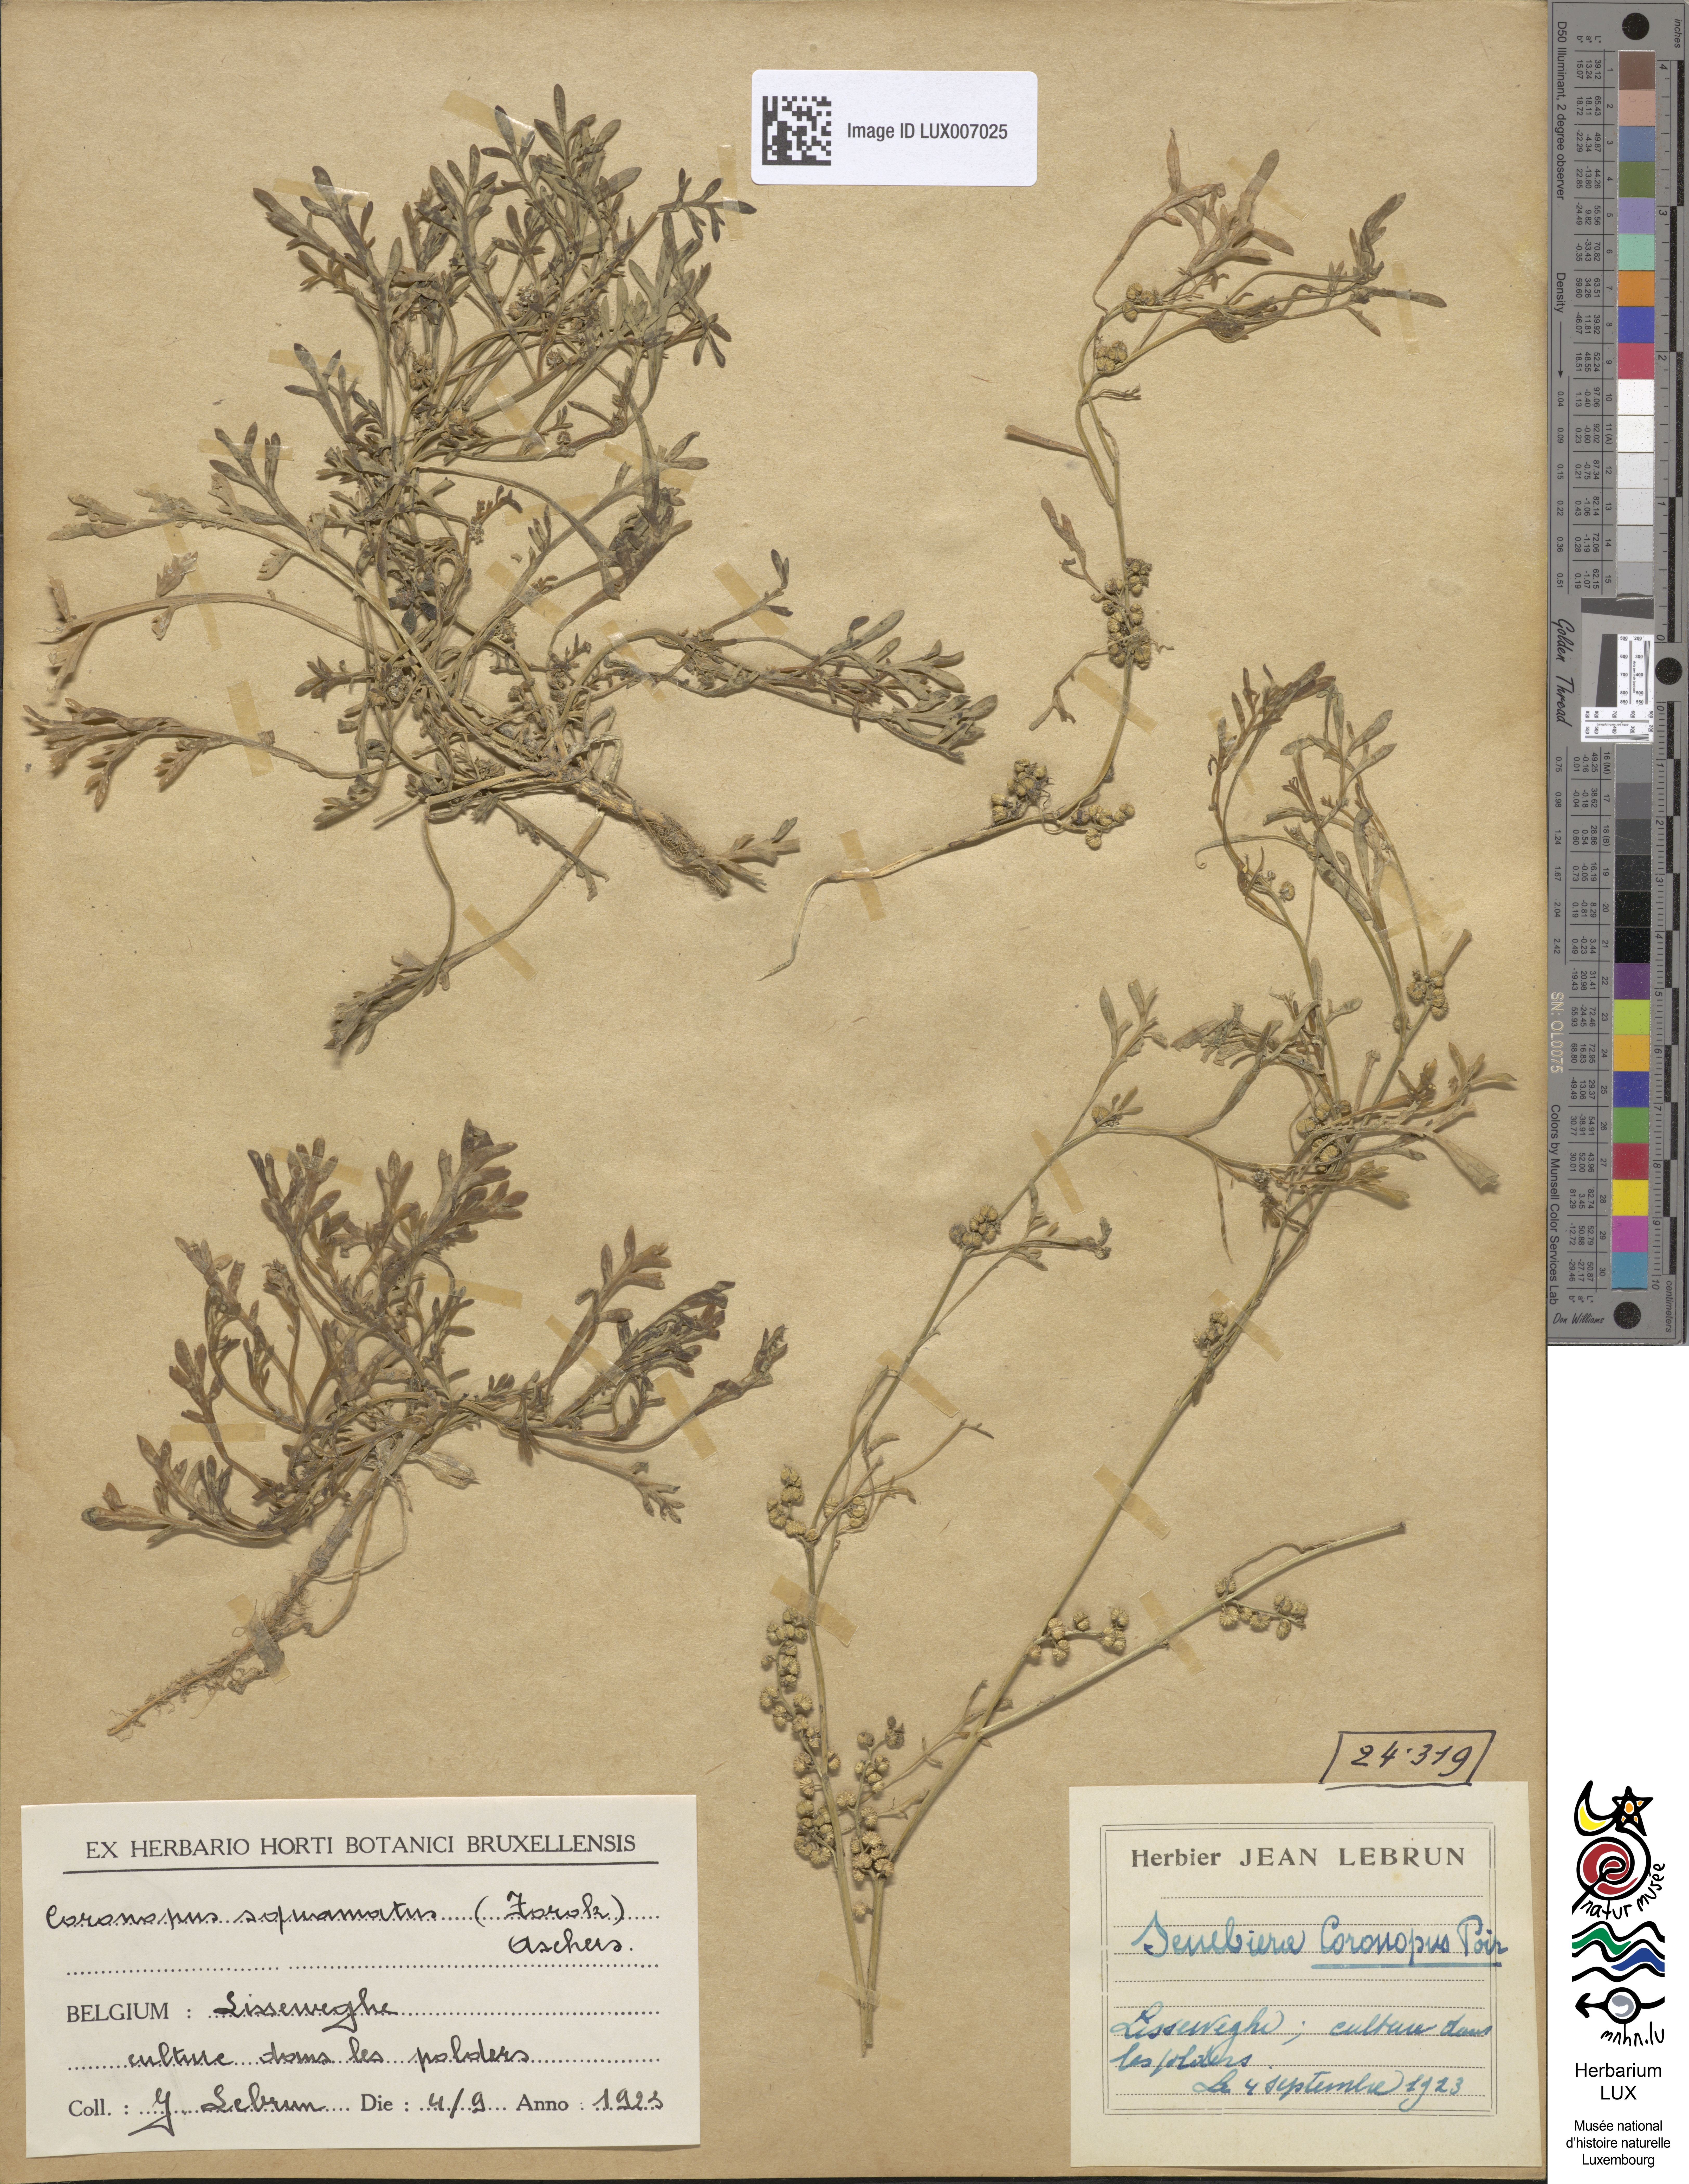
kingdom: Plantae
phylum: Tracheophyta
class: Magnoliopsida
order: Brassicales
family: Brassicaceae
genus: Lepidium
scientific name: Lepidium coronopus
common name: Greater swinecress
